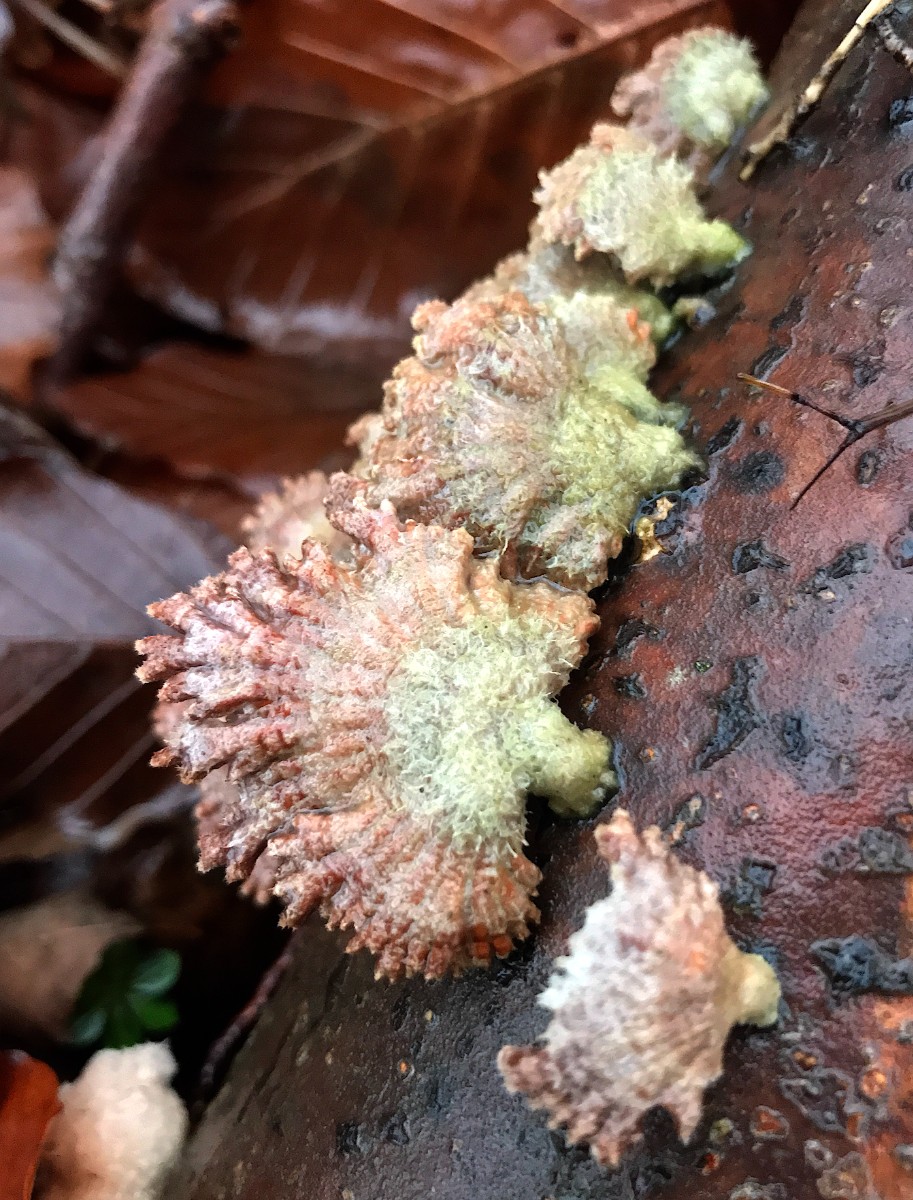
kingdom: Fungi
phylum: Basidiomycota
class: Agaricomycetes
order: Agaricales
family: Schizophyllaceae
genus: Schizophyllum
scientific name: Schizophyllum commune
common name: kløvblad
